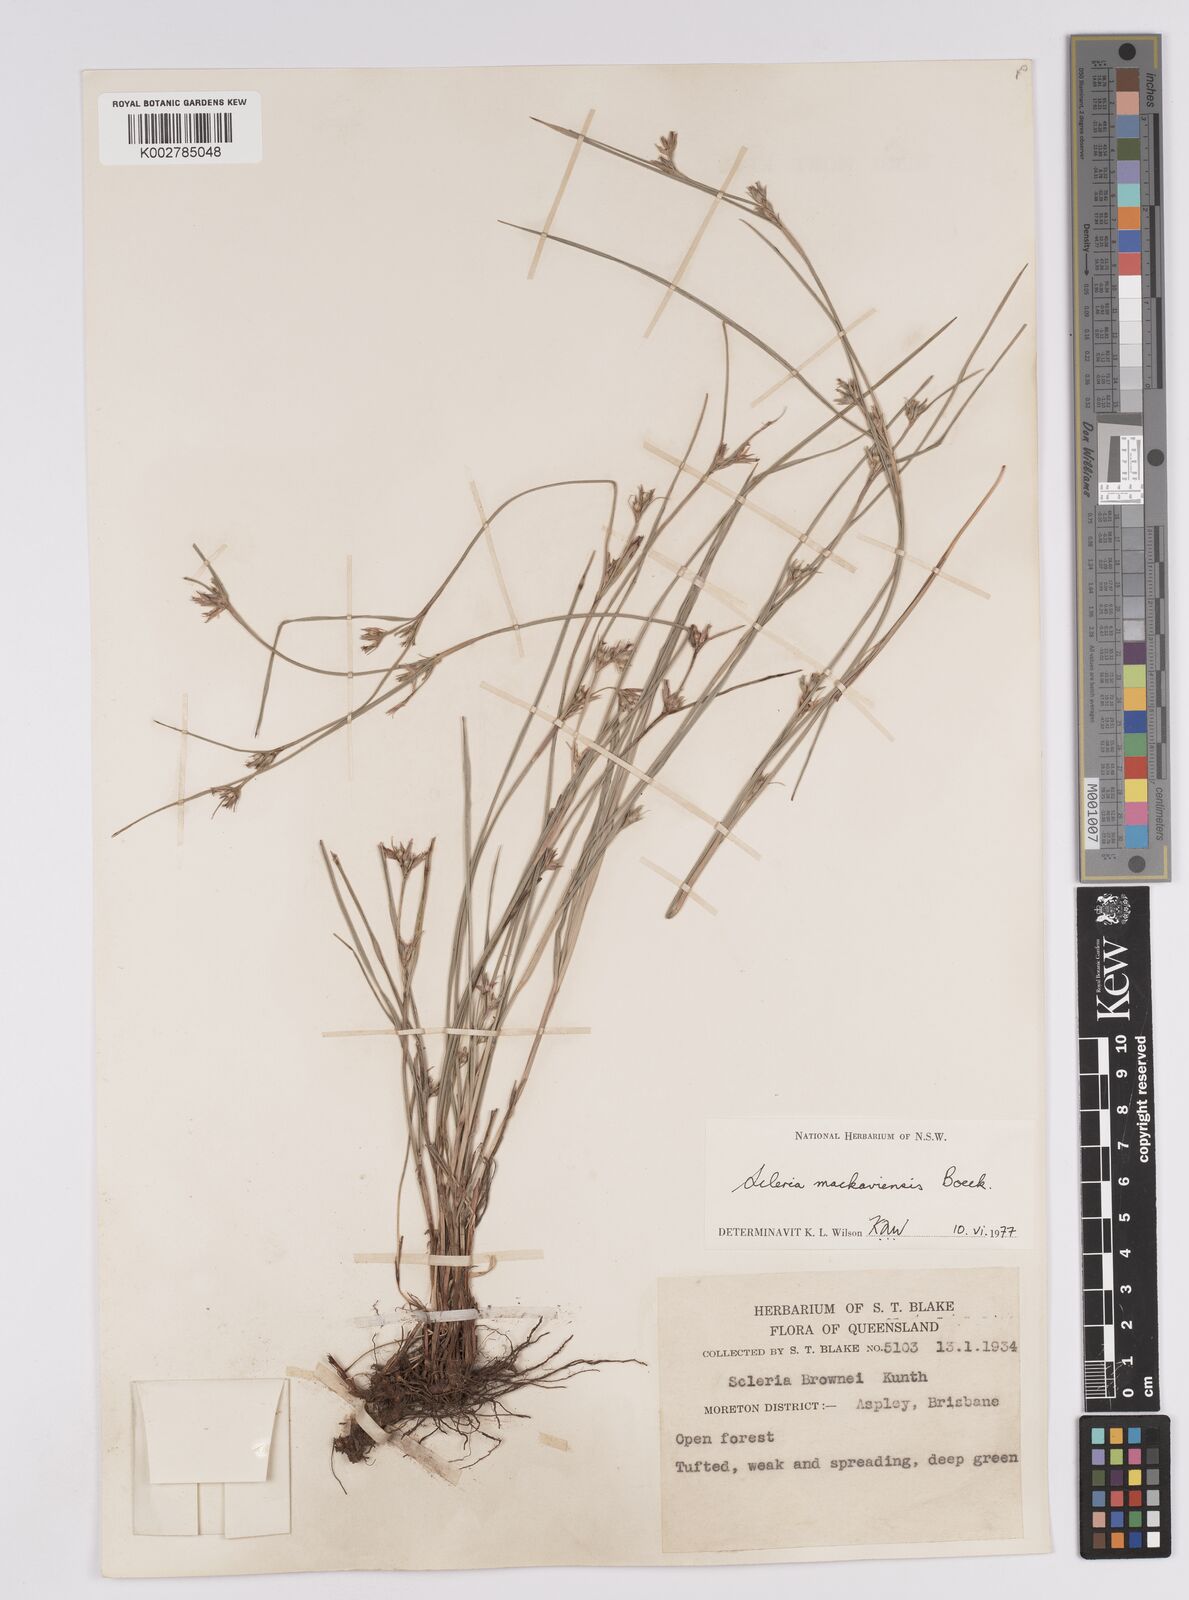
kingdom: Plantae
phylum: Tracheophyta
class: Liliopsida
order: Poales
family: Cyperaceae
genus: Scleria
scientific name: Scleria mackaviensis
